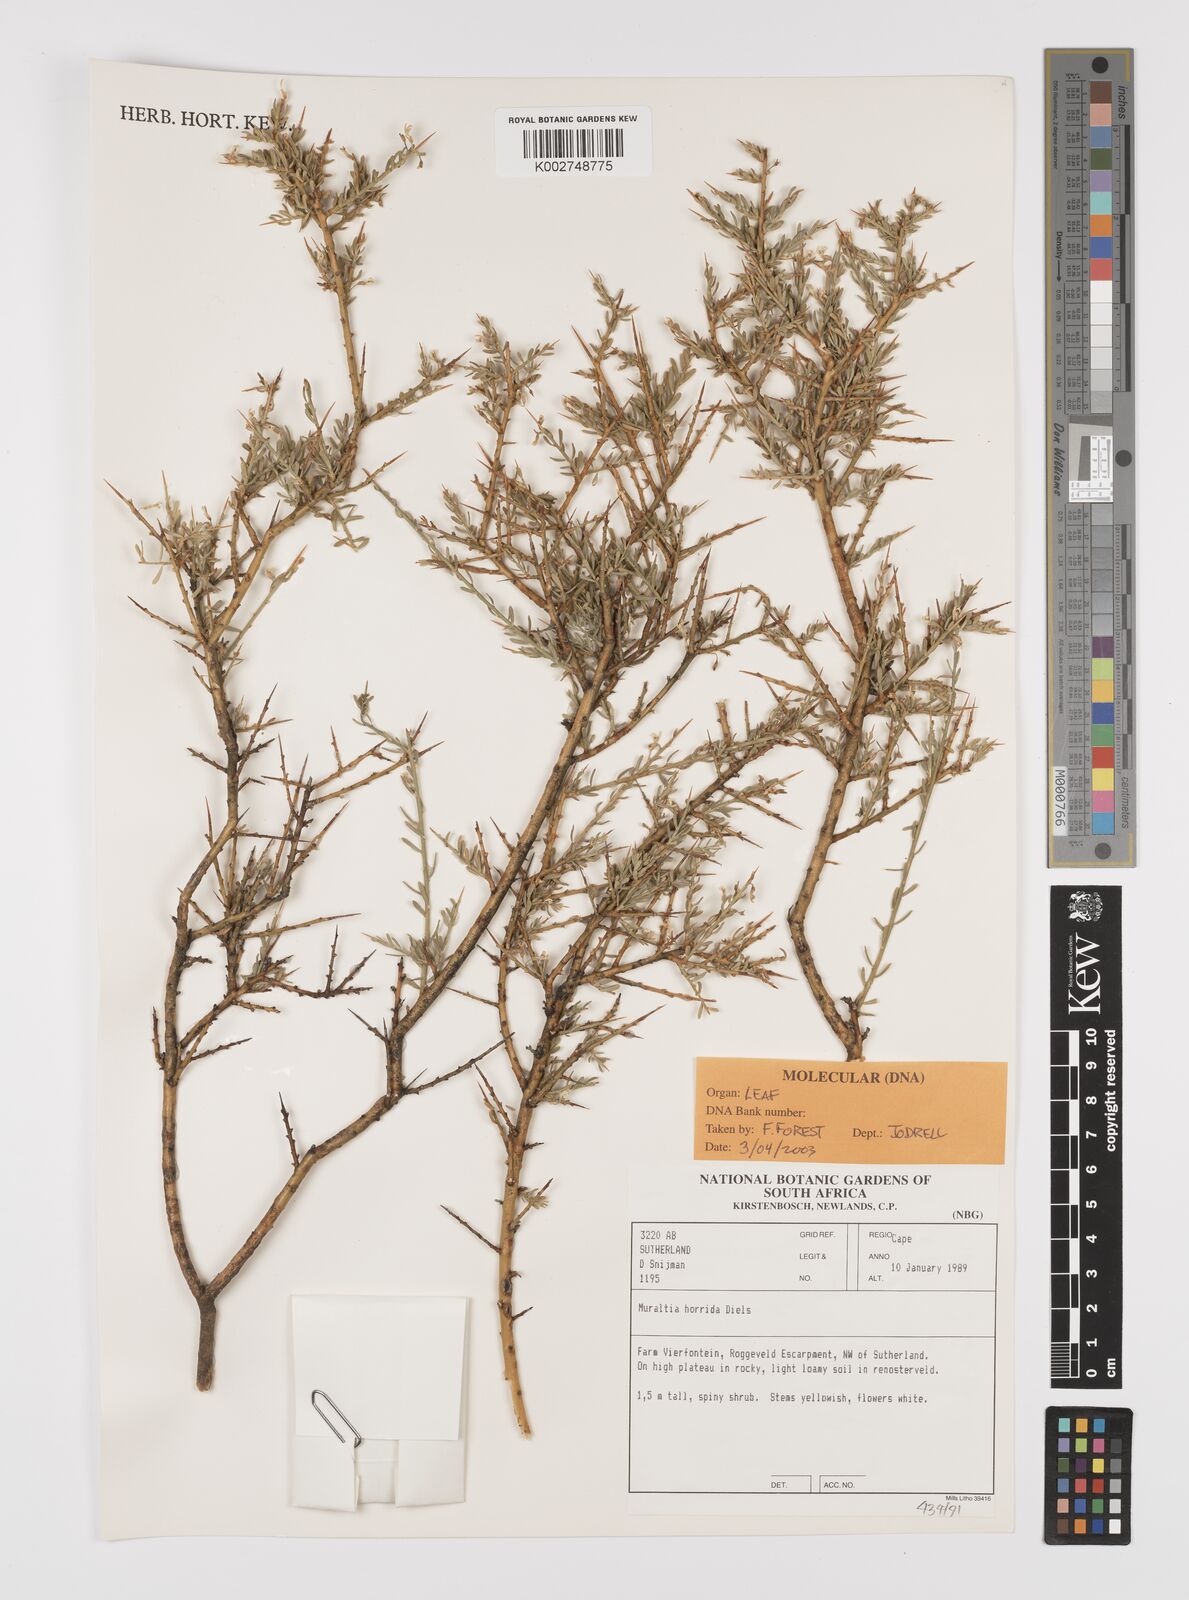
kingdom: Plantae
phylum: Tracheophyta
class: Magnoliopsida
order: Fabales
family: Polygalaceae
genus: Muraltia
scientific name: Muraltia horrida
